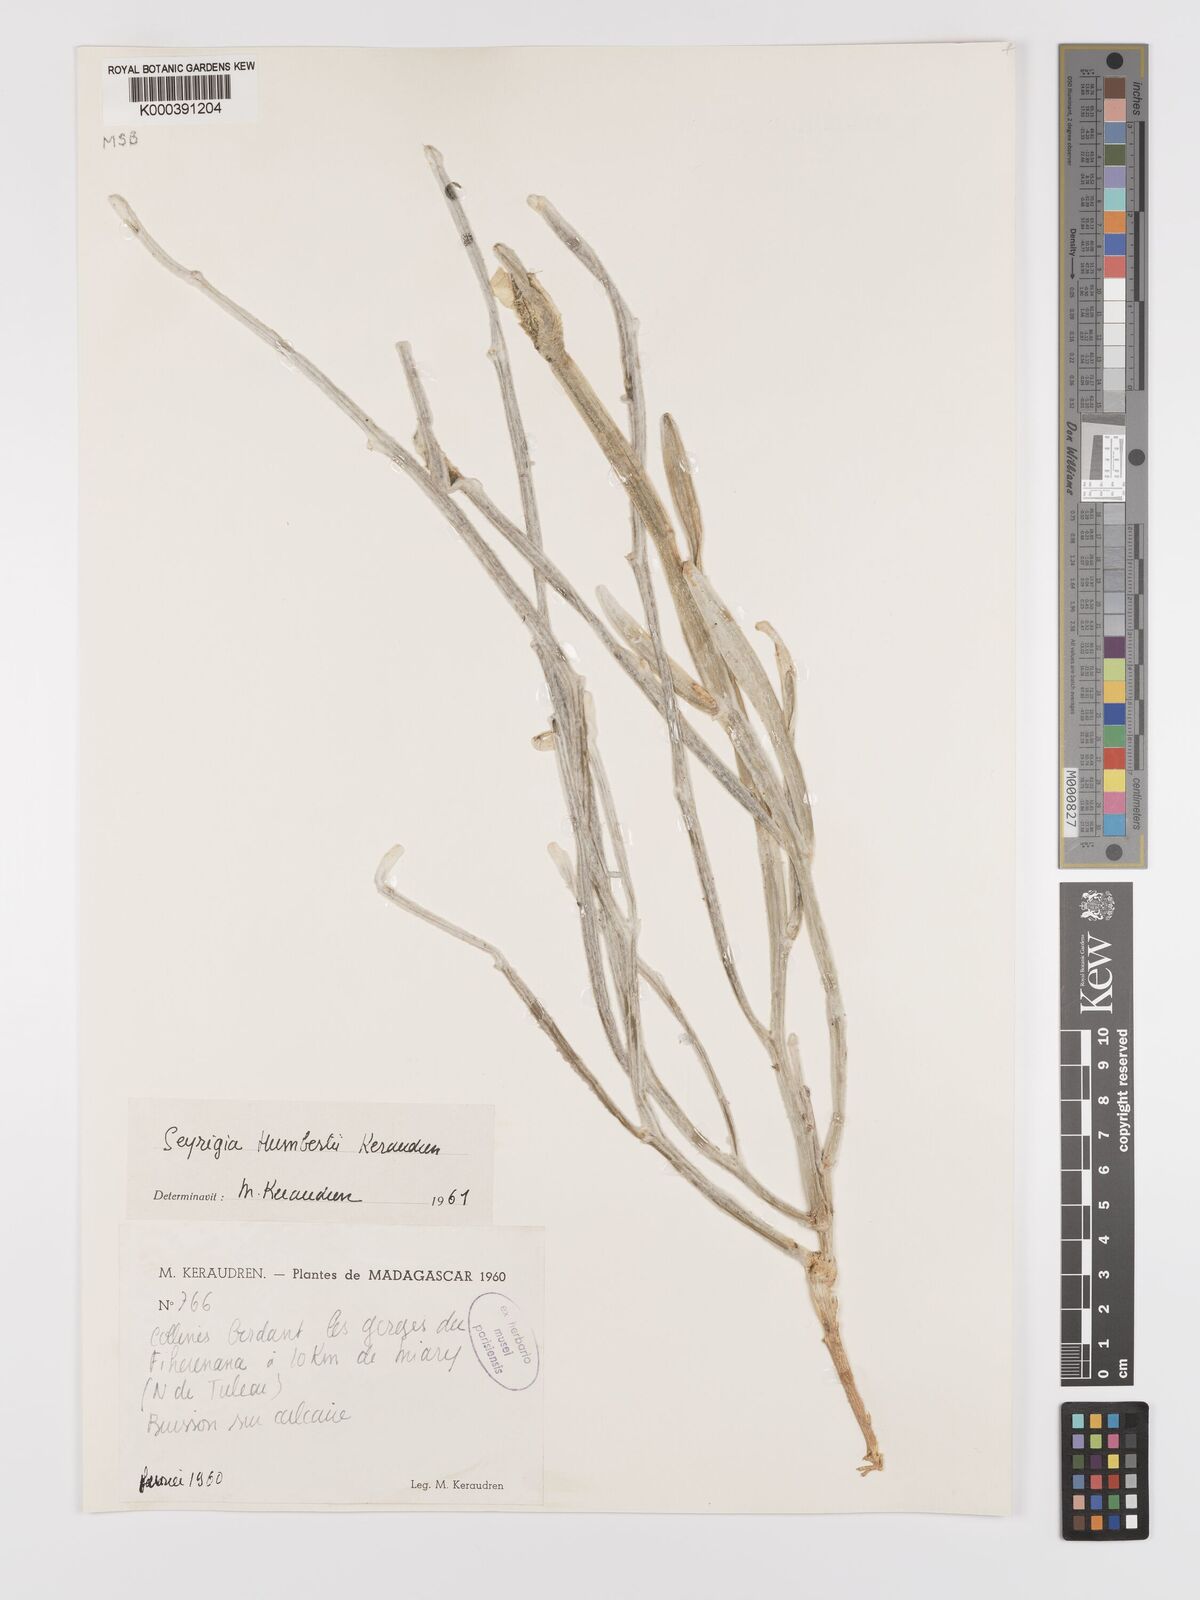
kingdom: Plantae
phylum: Tracheophyta
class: Magnoliopsida
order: Cucurbitales
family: Cucurbitaceae
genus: Seyrigia
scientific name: Seyrigia humbertii
